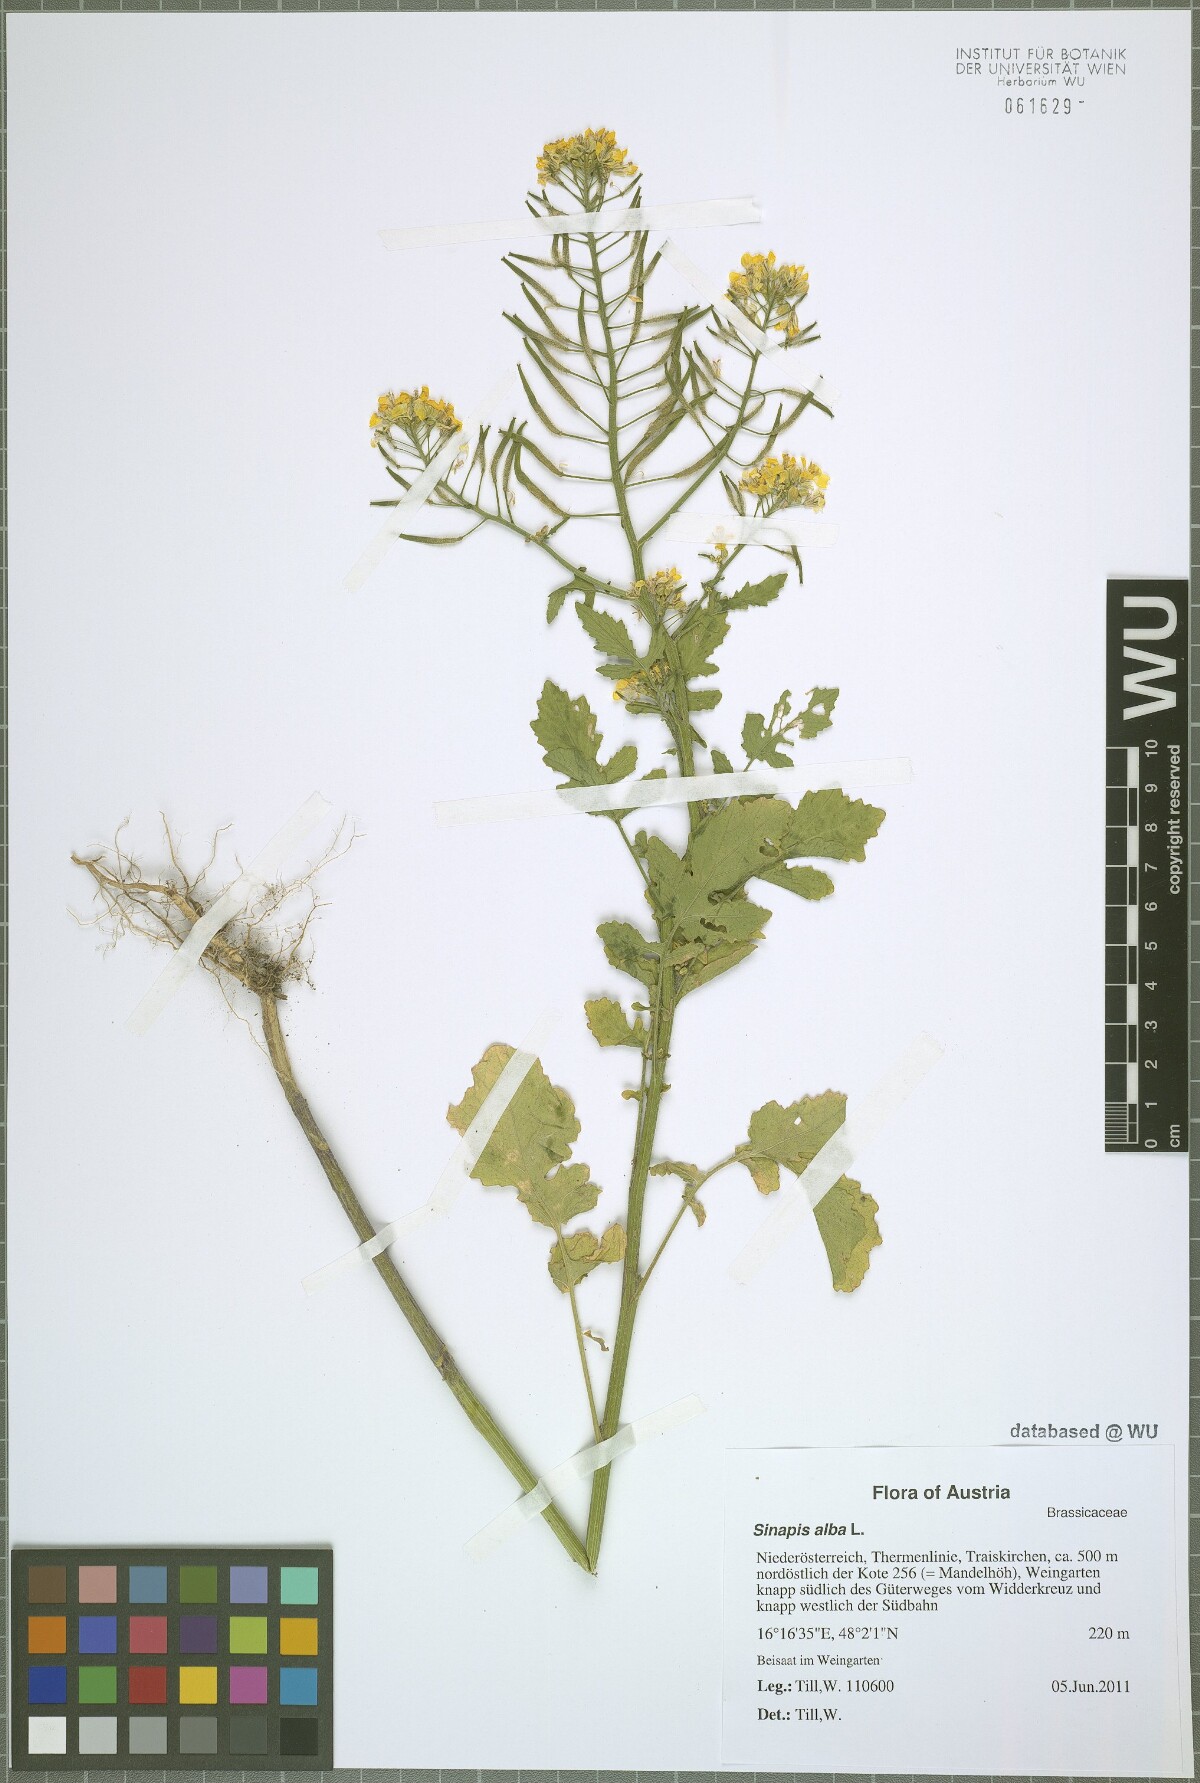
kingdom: Plantae
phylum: Tracheophyta
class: Magnoliopsida
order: Brassicales
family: Brassicaceae
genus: Sinapis
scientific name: Sinapis alba
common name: White mustard
